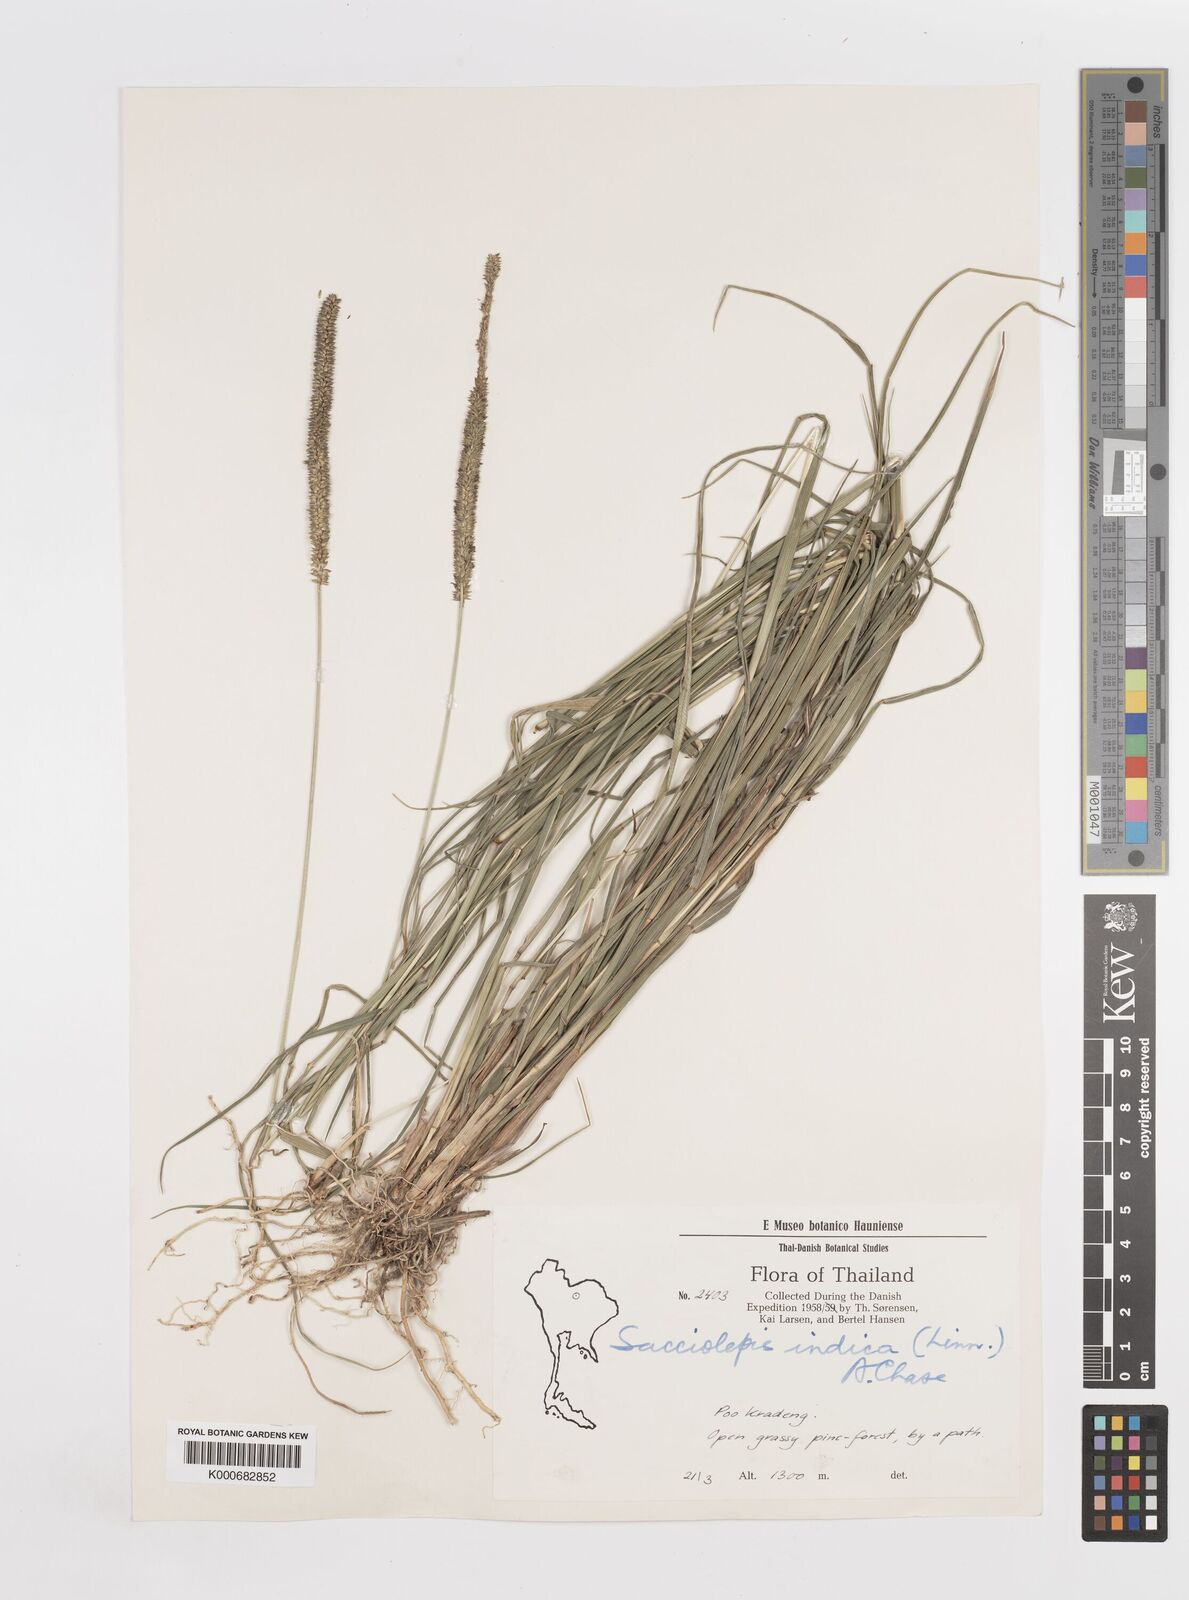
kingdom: Plantae
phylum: Tracheophyta
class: Liliopsida
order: Poales
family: Poaceae
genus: Sacciolepis
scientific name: Sacciolepis indica
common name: Glenwoodgrass
